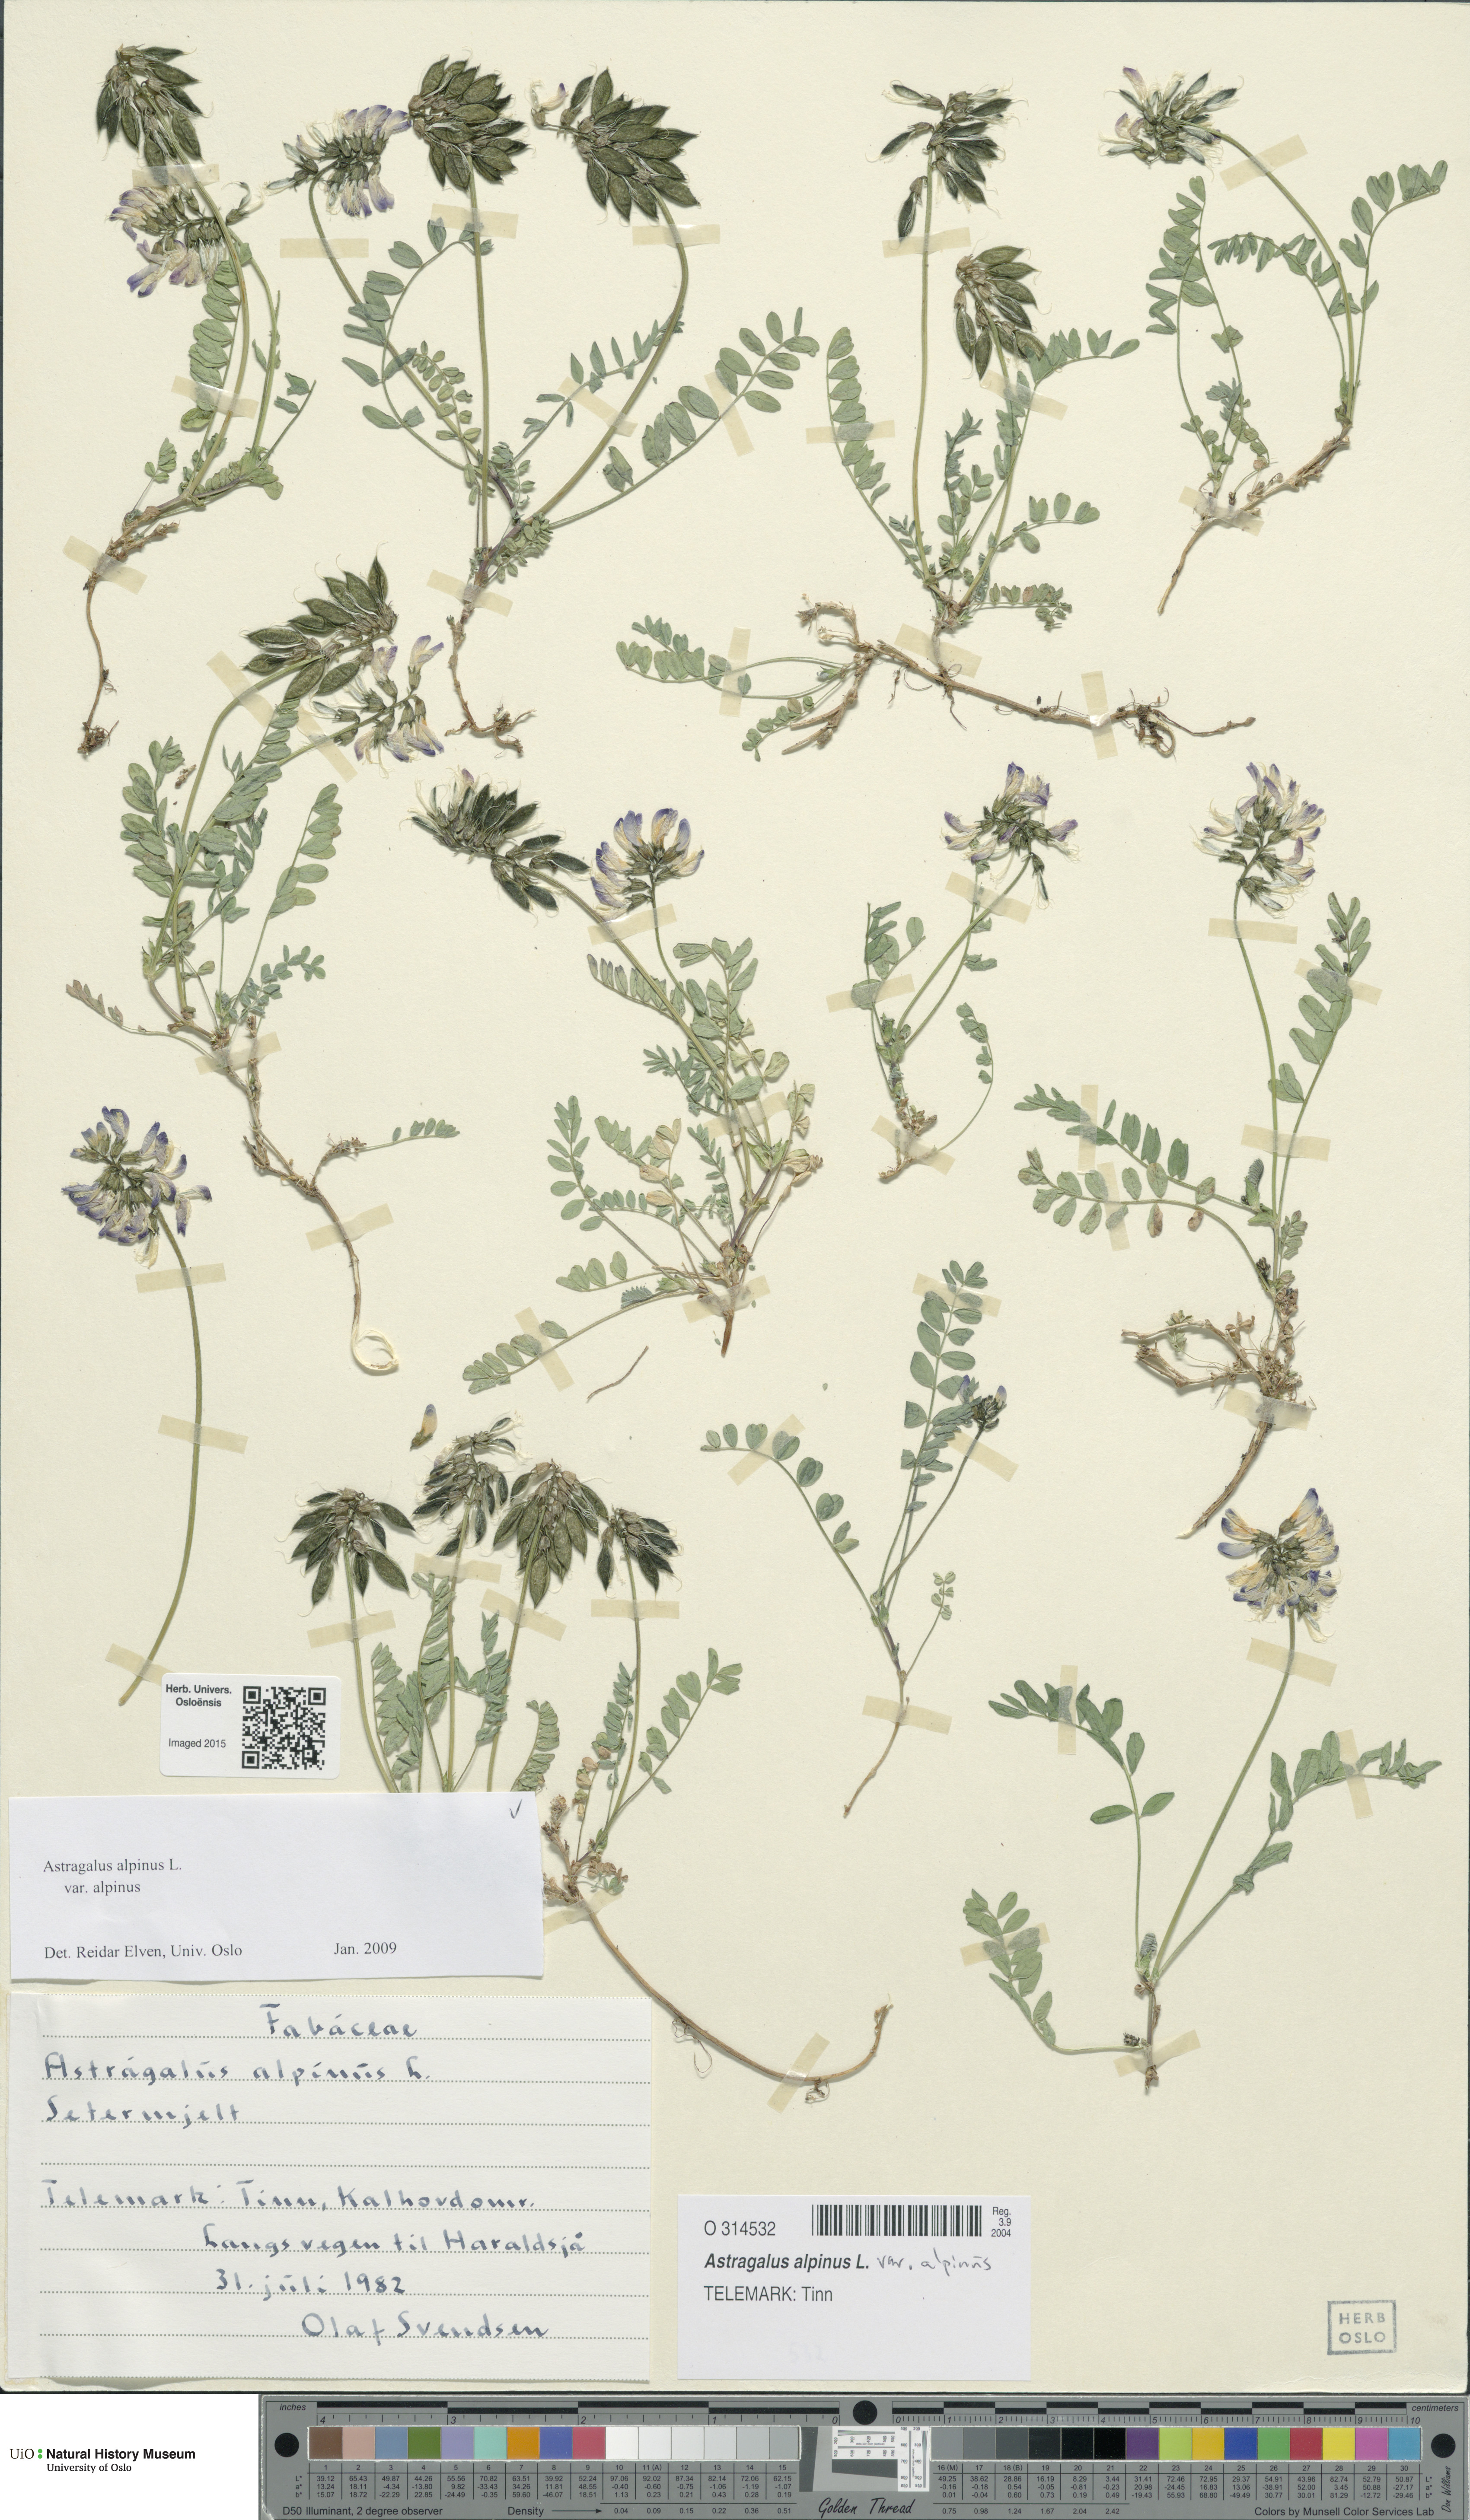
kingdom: Plantae
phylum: Tracheophyta
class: Magnoliopsida
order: Fabales
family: Fabaceae
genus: Astragalus
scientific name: Astragalus alpinus
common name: Alpine milk-vetch
